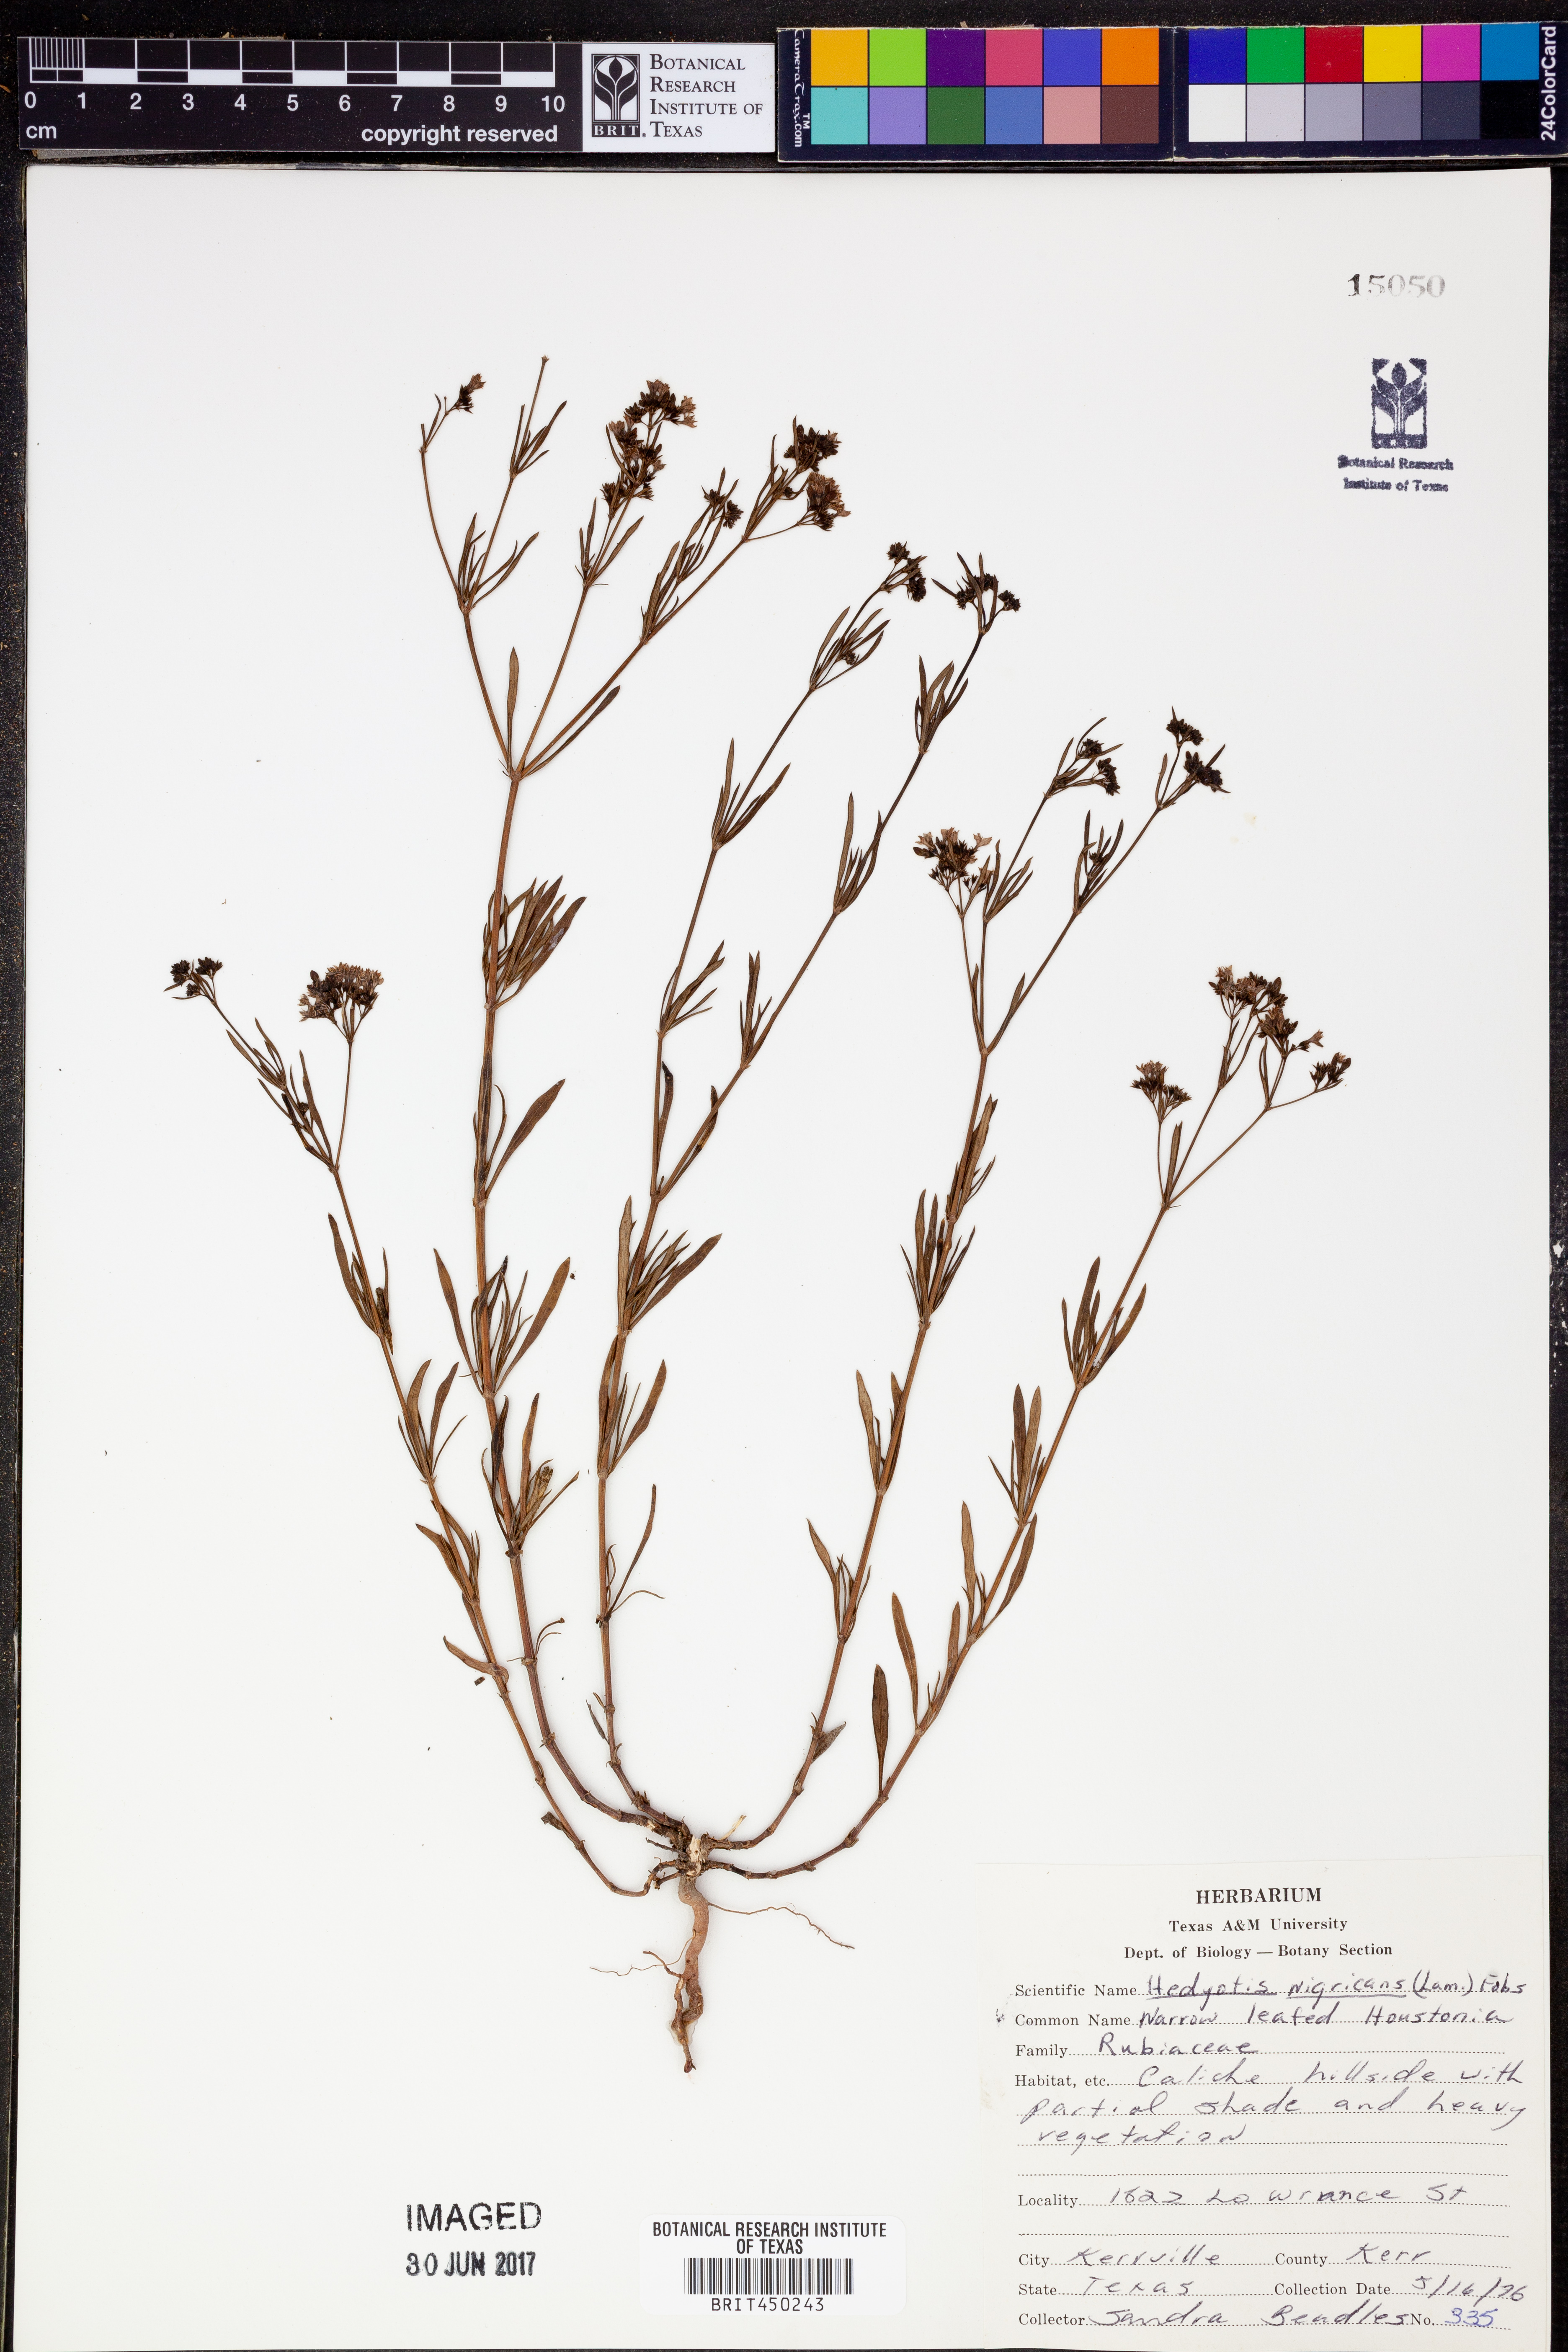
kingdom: Plantae
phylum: Tracheophyta
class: Magnoliopsida
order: Gentianales
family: Rubiaceae
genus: Stenaria
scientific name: Stenaria nigricans
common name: Diamondflowers
